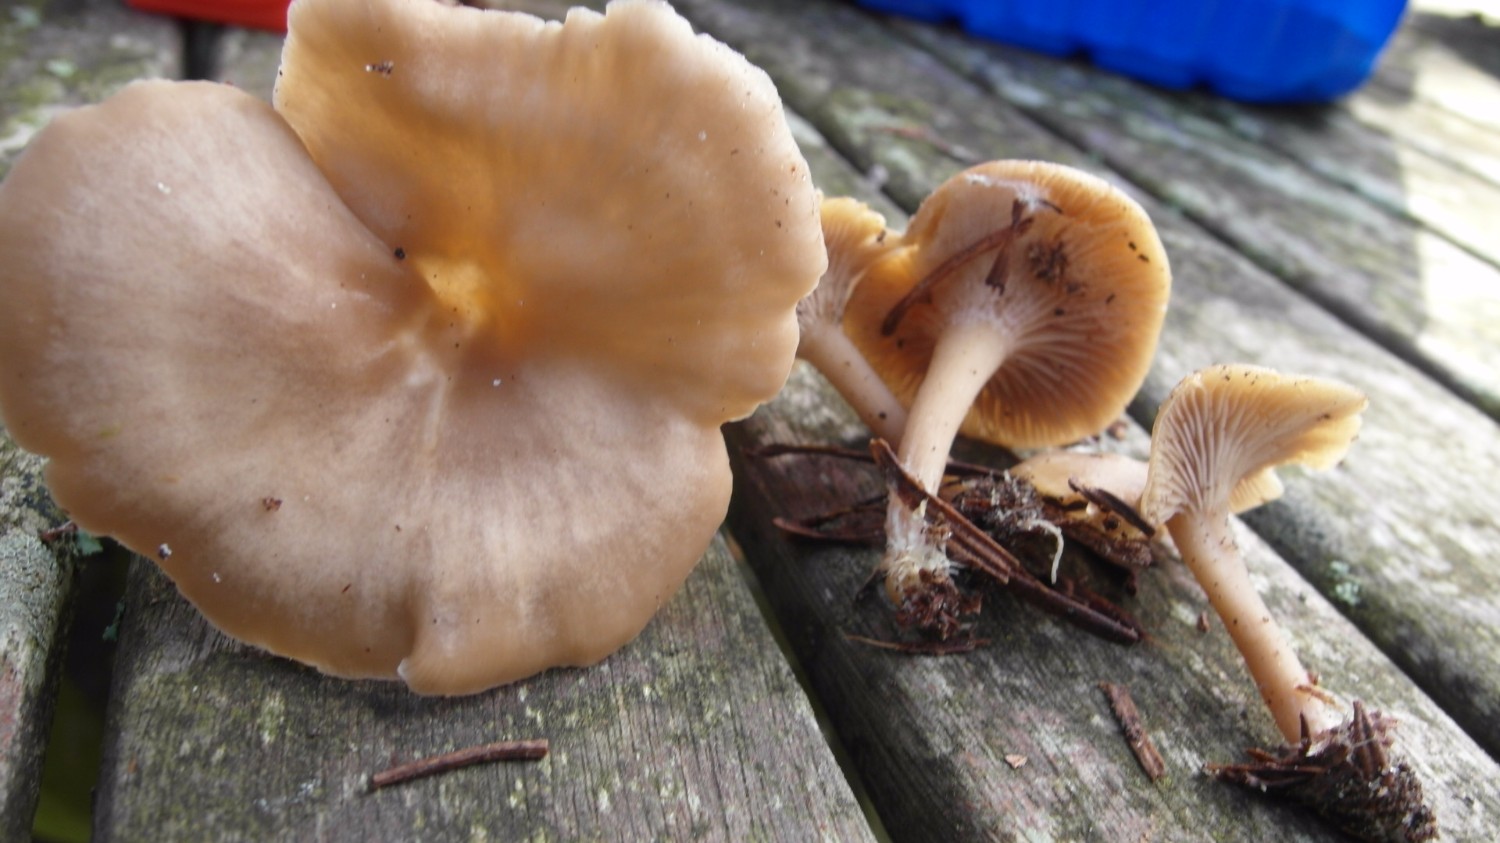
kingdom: Fungi
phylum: Basidiomycota
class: Agaricomycetes
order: Agaricales
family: Tricholomataceae
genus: Clitocybe
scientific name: Clitocybe
